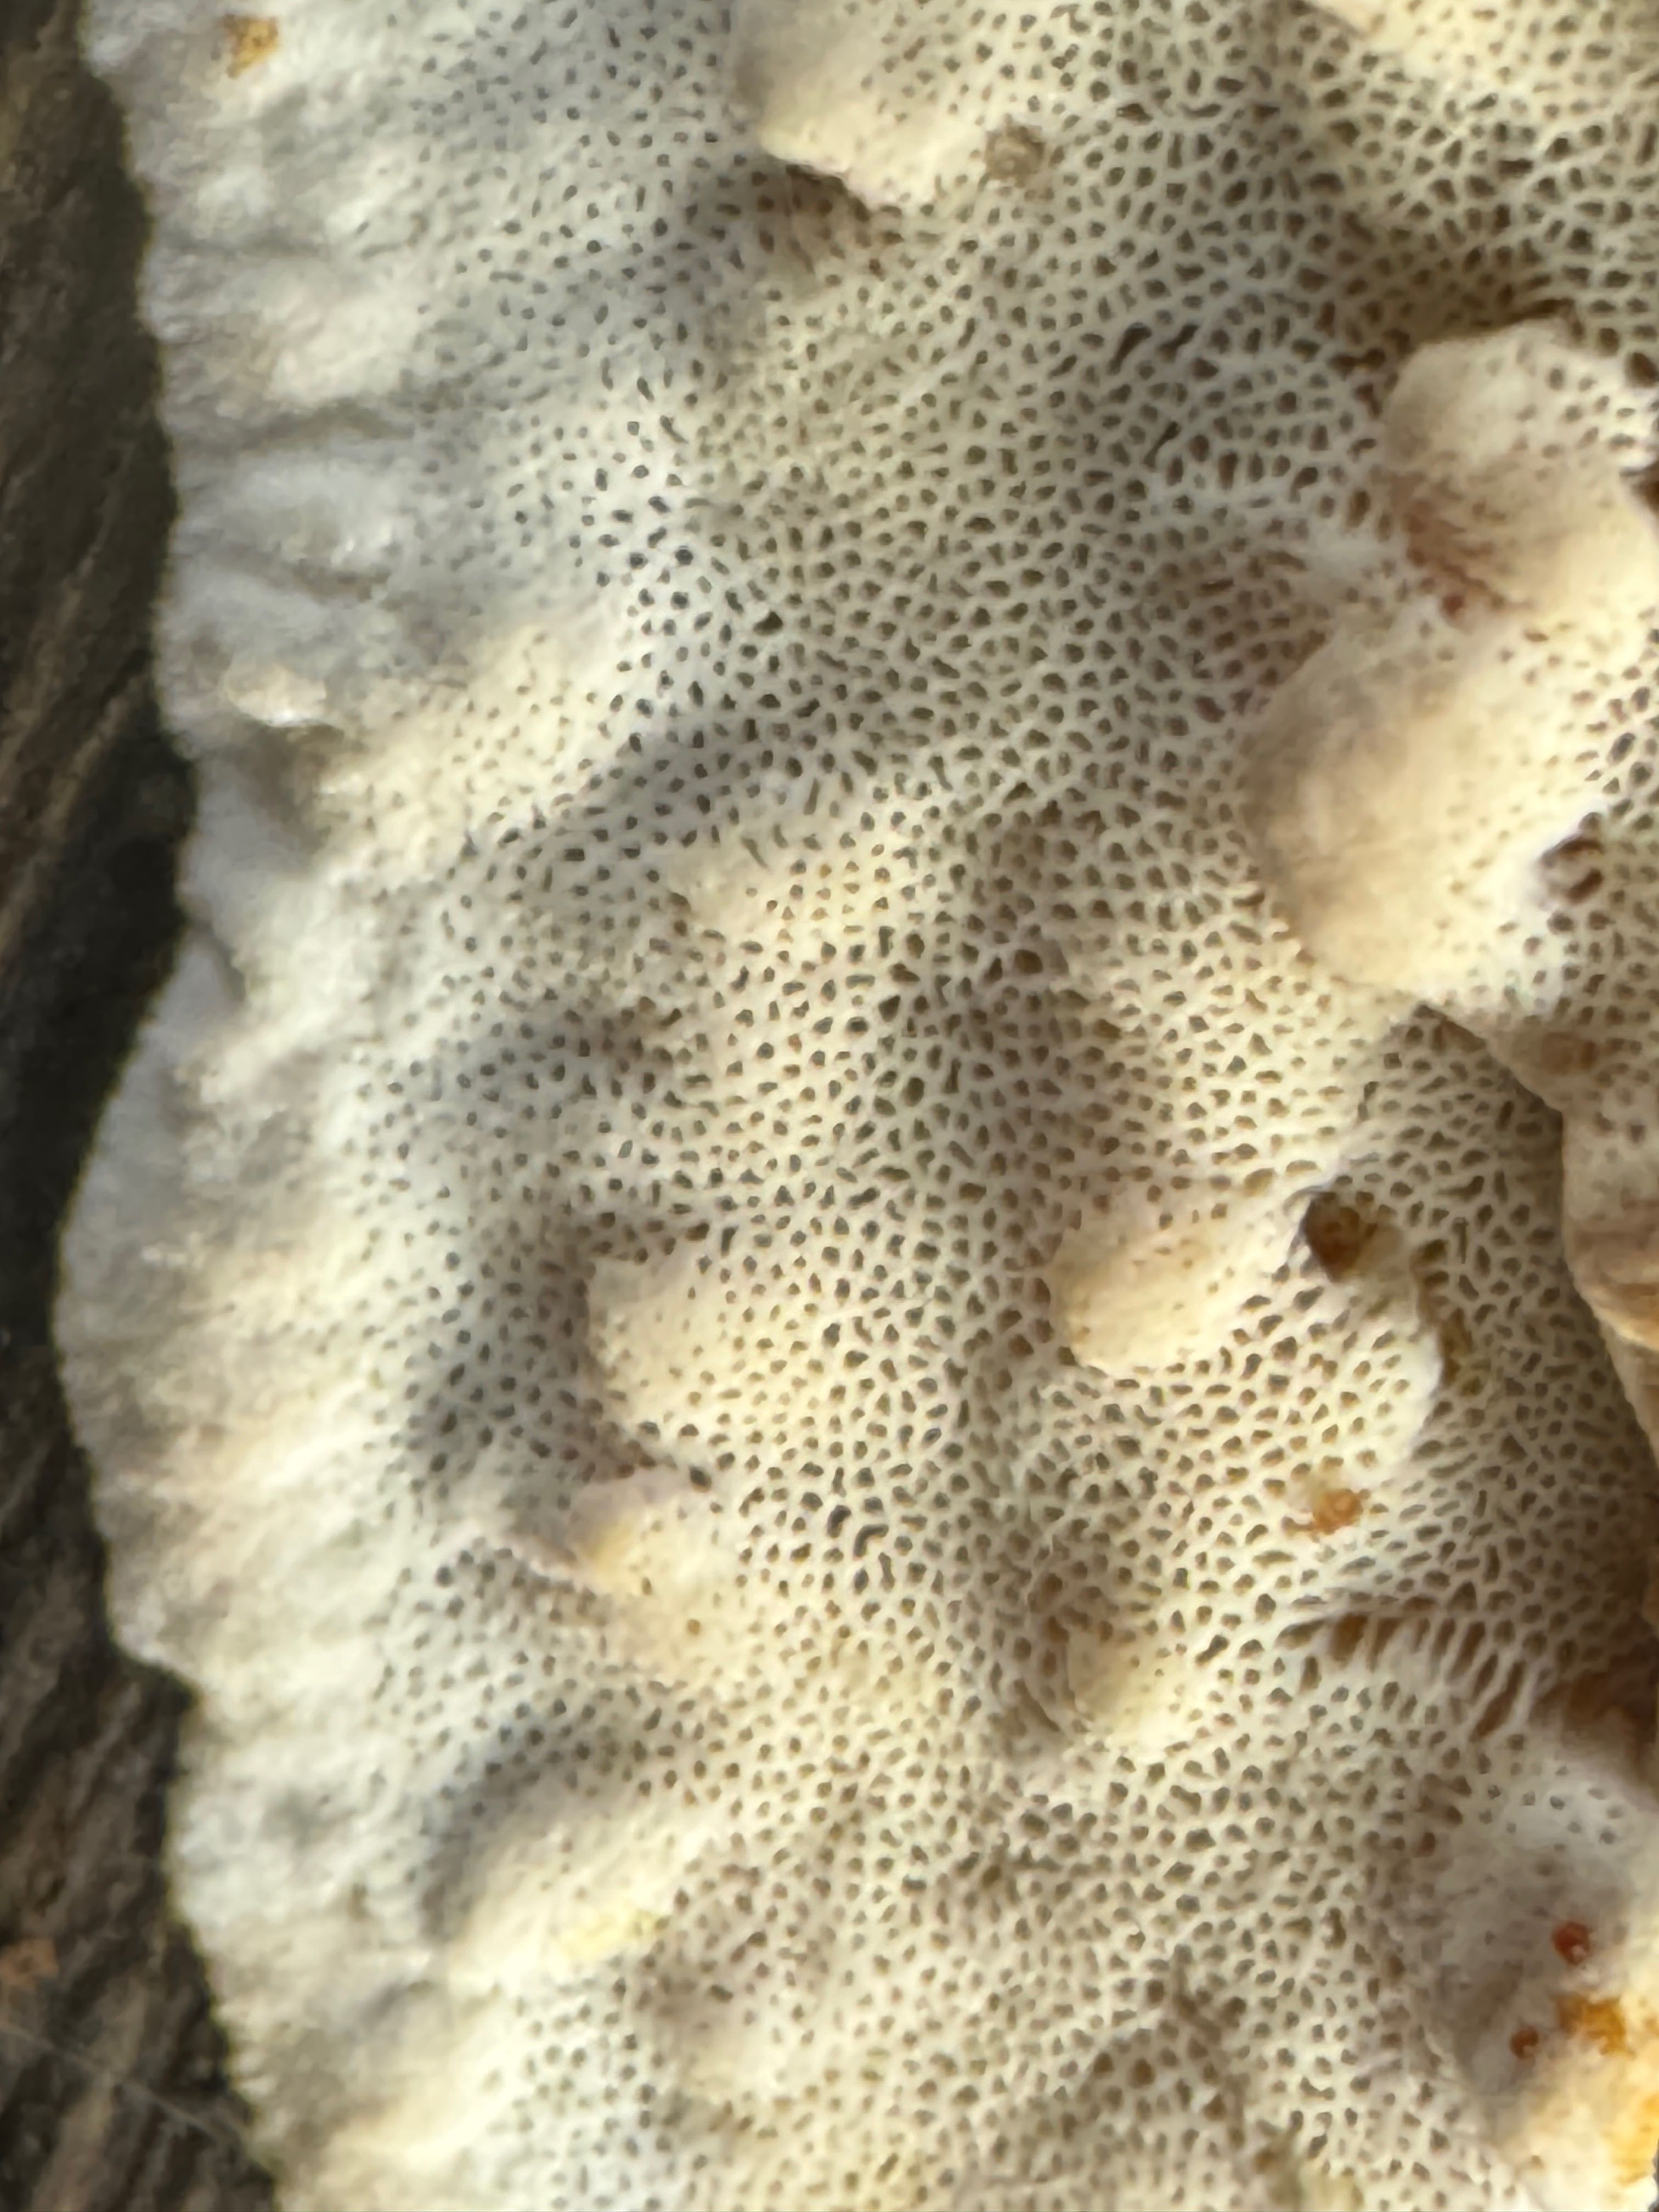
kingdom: Fungi
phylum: Basidiomycota
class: Agaricomycetes
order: Polyporales
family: Incrustoporiaceae
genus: Skeletocutis
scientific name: Skeletocutis nemoralis
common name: stor krystalporesvamp
